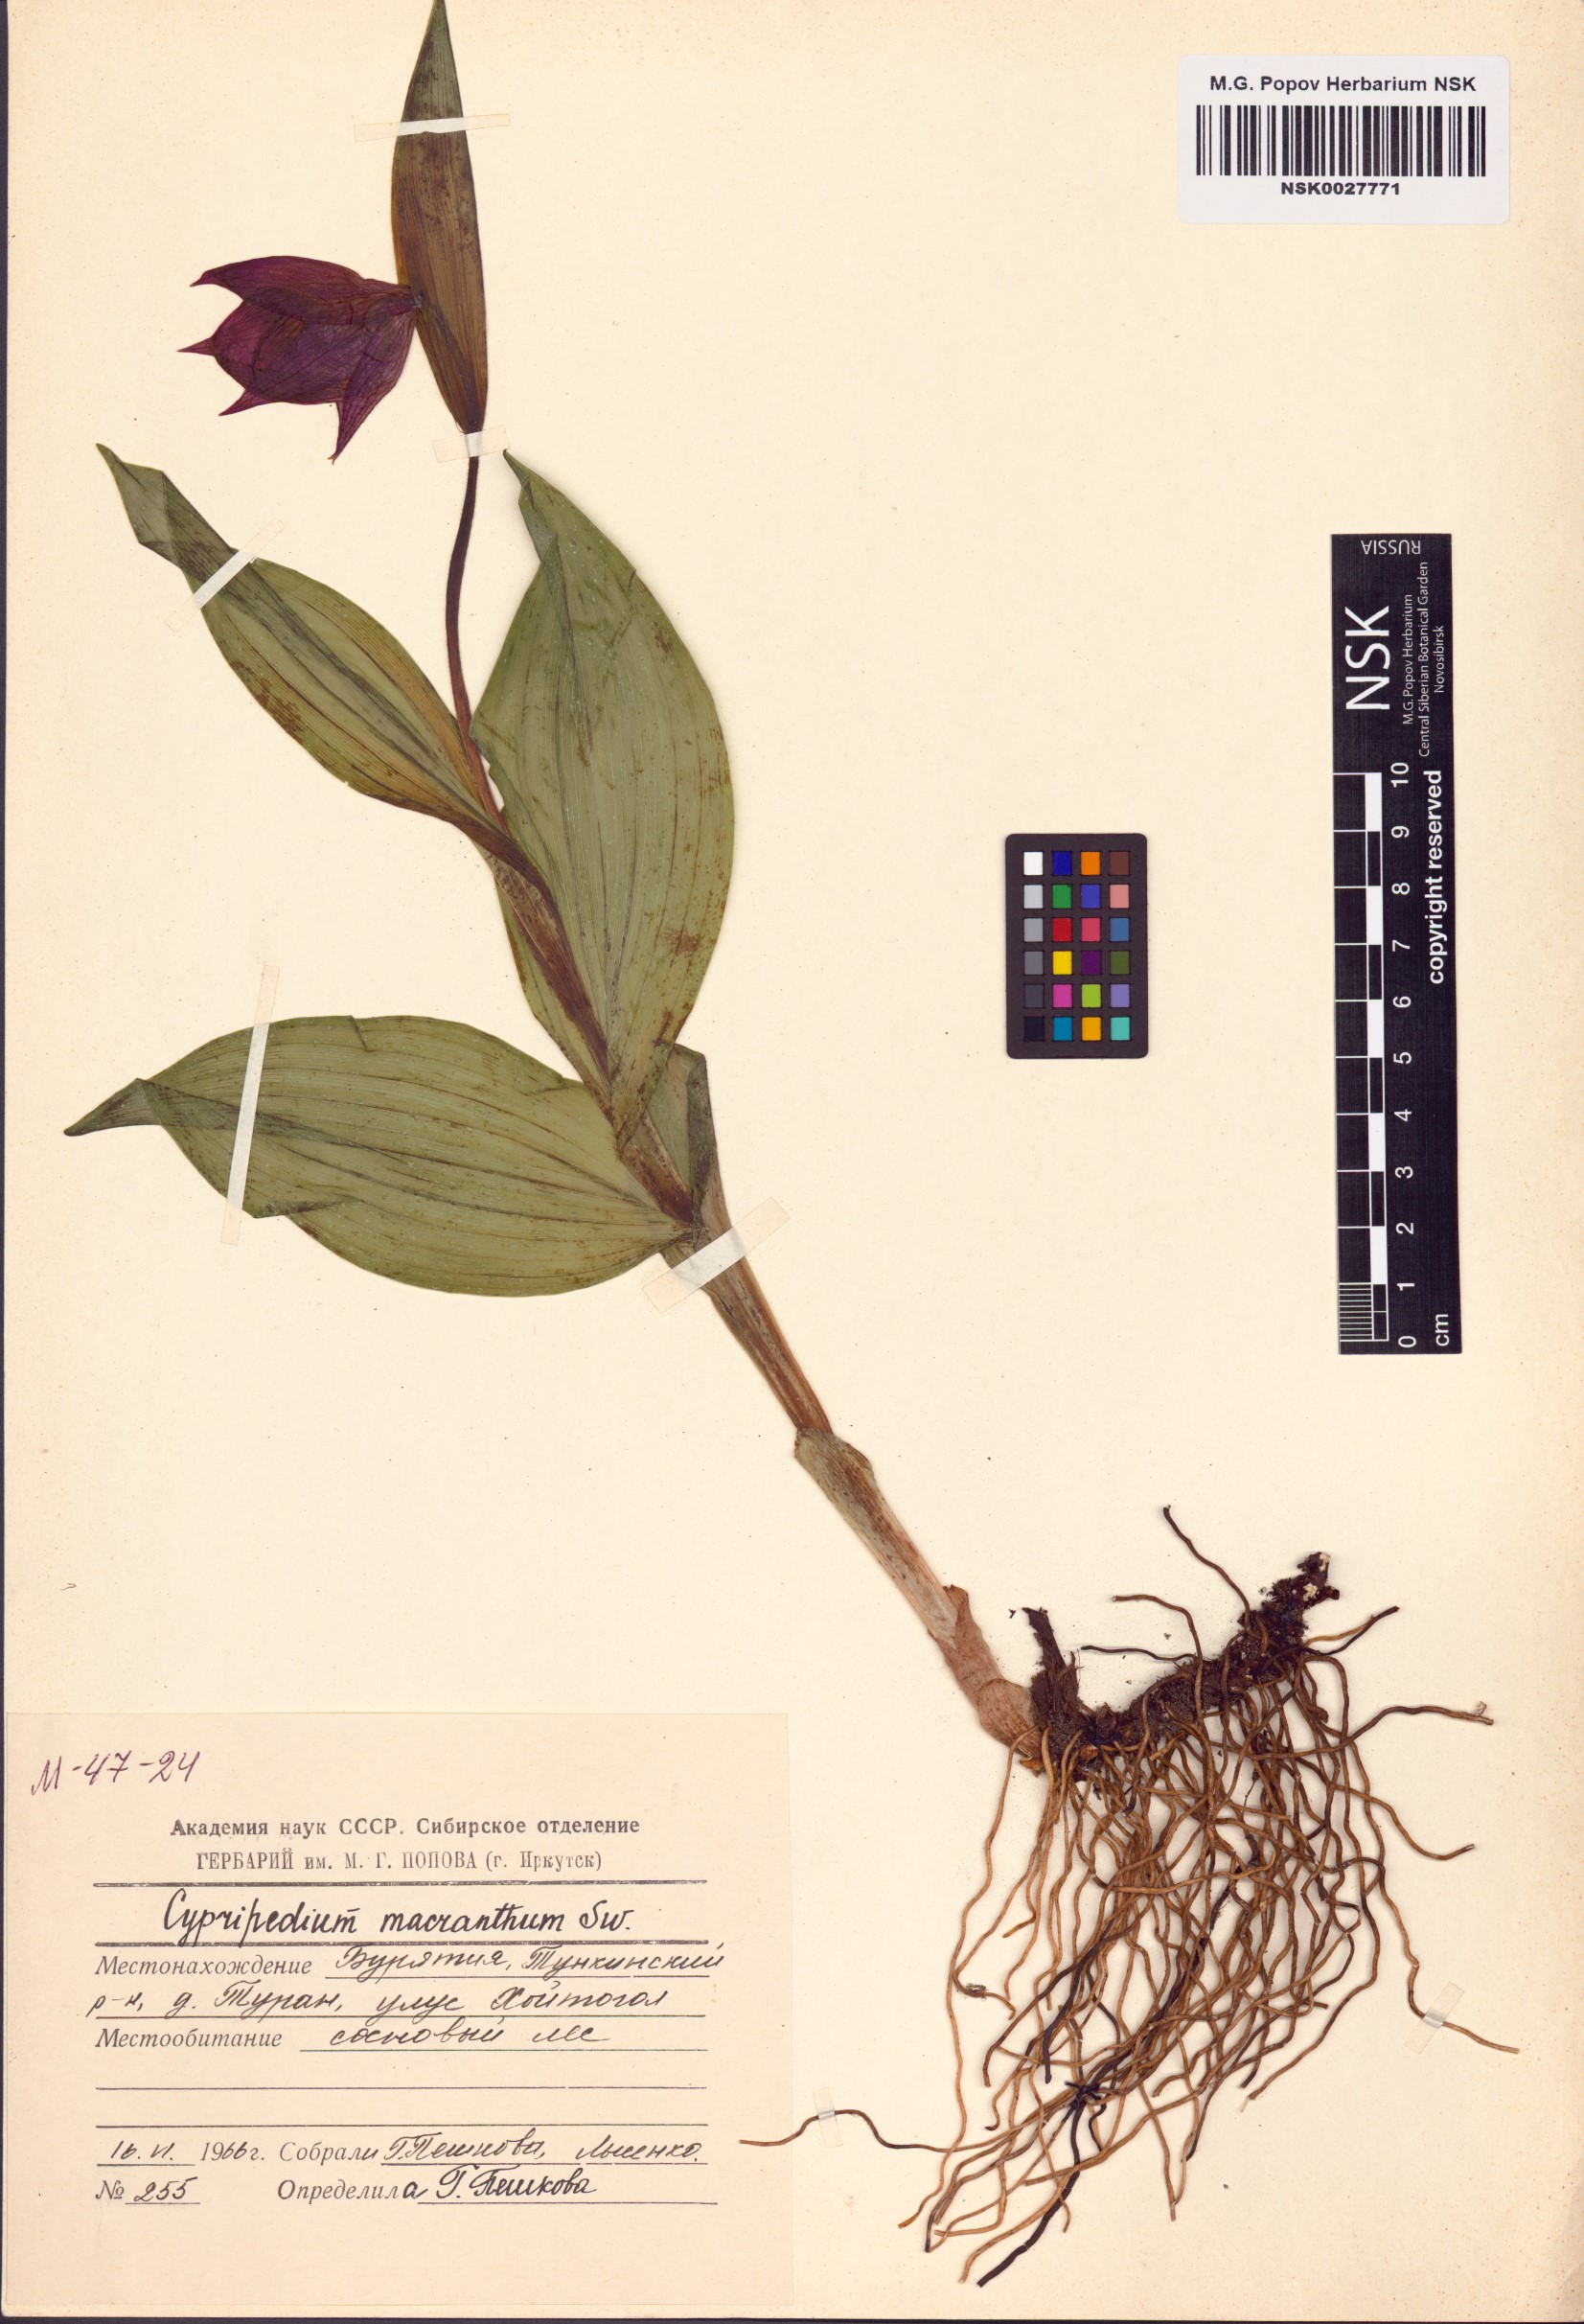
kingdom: Plantae
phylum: Tracheophyta
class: Liliopsida
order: Asparagales
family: Orchidaceae
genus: Cypripedium
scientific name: Cypripedium macranthos
